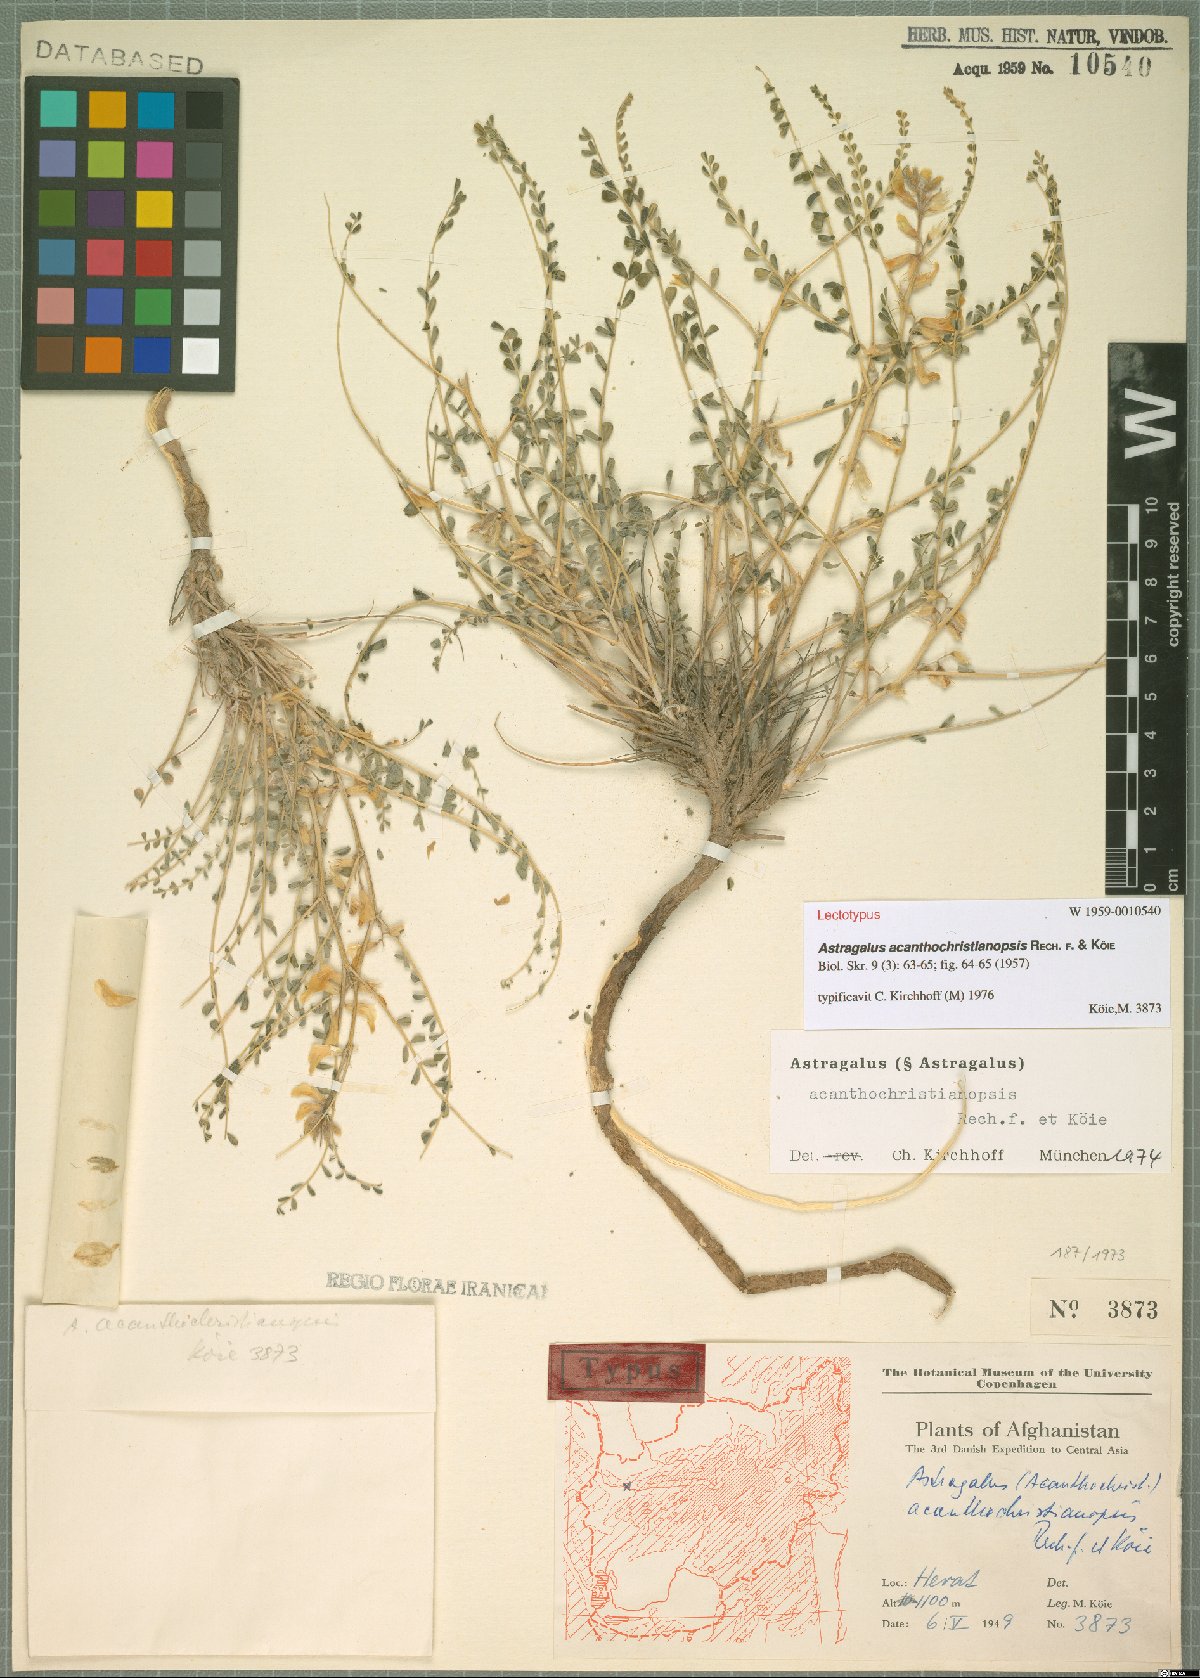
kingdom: Plantae
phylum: Tracheophyta
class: Magnoliopsida
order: Fabales
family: Fabaceae
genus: Astragalus
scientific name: Astragalus acanthochristianopsis
